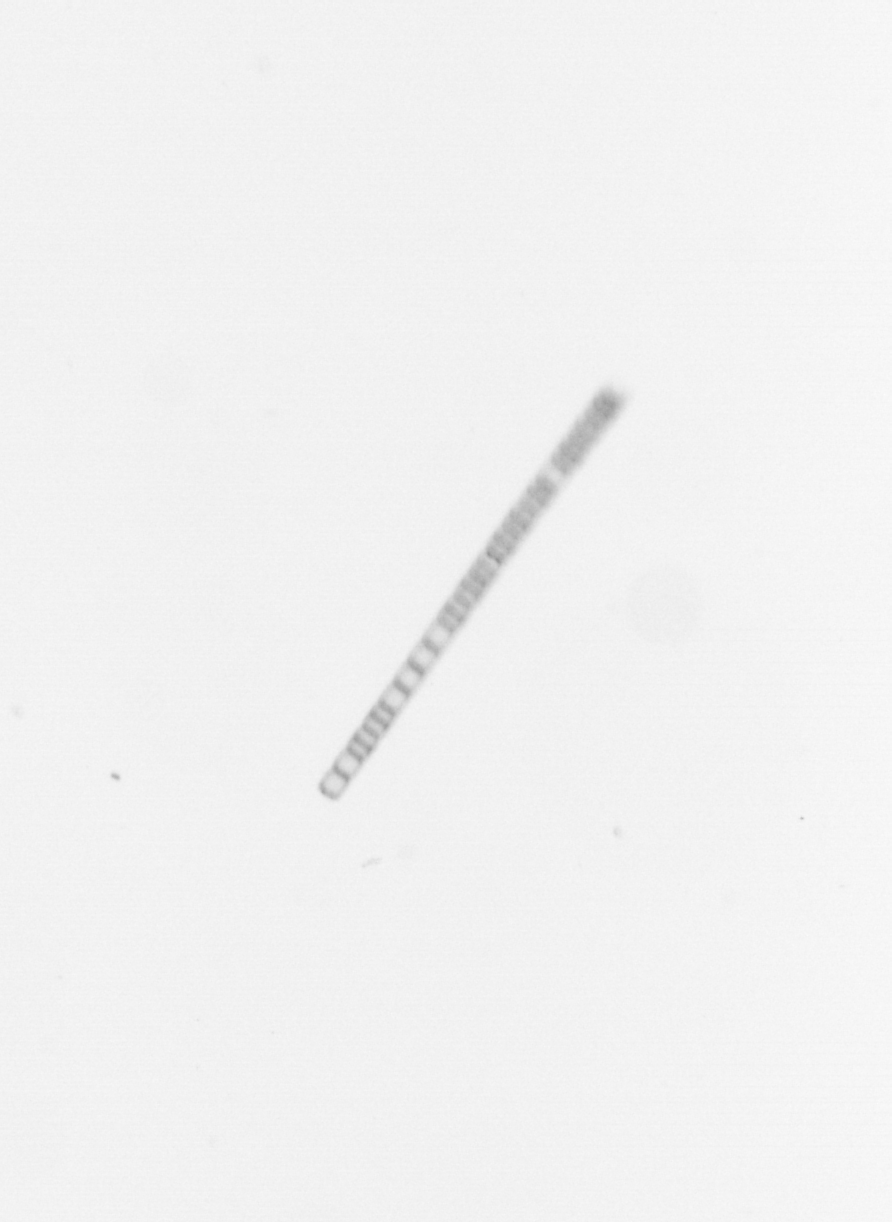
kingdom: Chromista
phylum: Ochrophyta
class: Bacillariophyceae
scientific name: Bacillariophyceae
